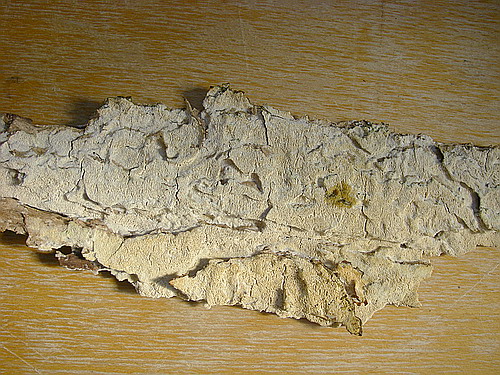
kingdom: Fungi
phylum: Basidiomycota
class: Agaricomycetes
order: Polyporales
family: Gelatoporiaceae
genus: Cinereomyces
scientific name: Cinereomyces lindbladii
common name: almindelig gråporesvamp
